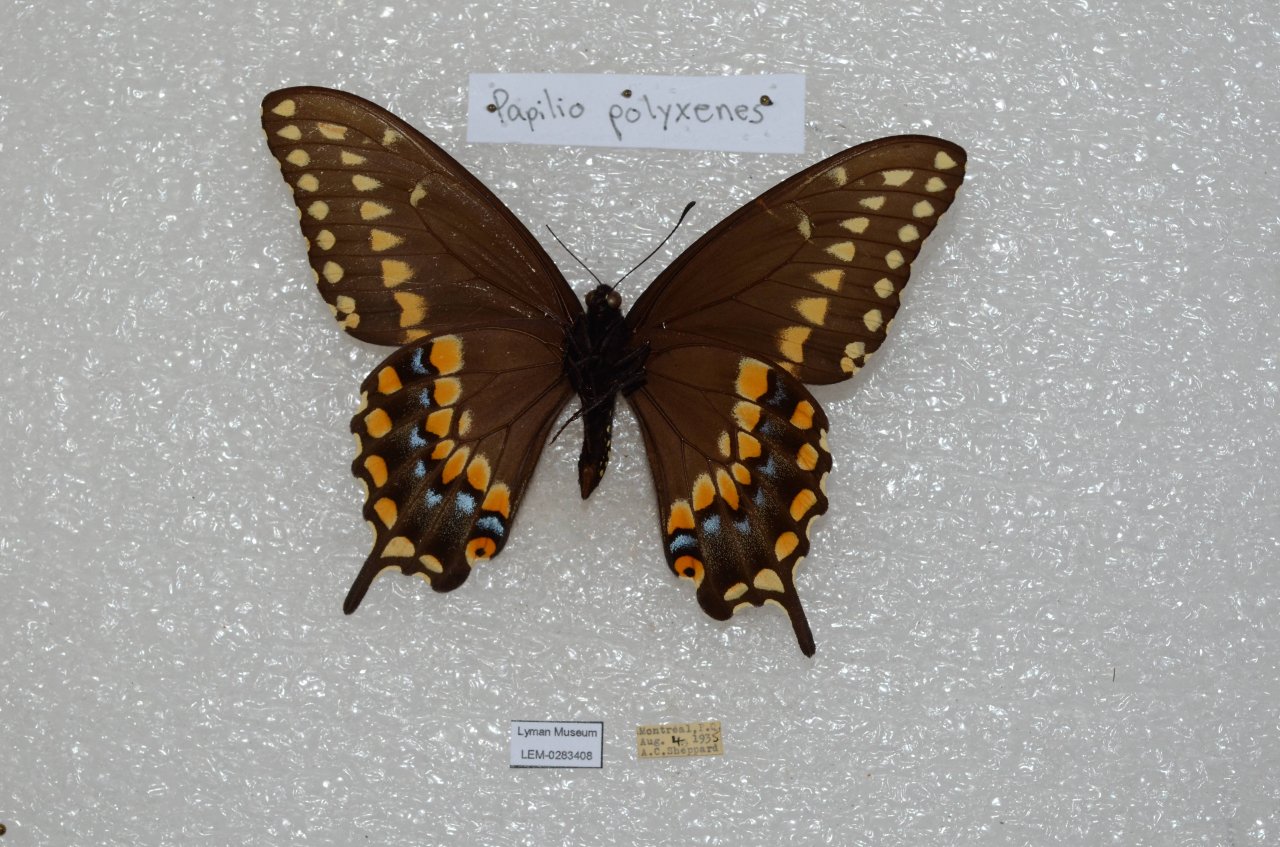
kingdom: Animalia
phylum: Arthropoda
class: Insecta
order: Lepidoptera
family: Papilionidae
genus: Papilio
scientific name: Papilio polyxenes
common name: Black Swallowtail
